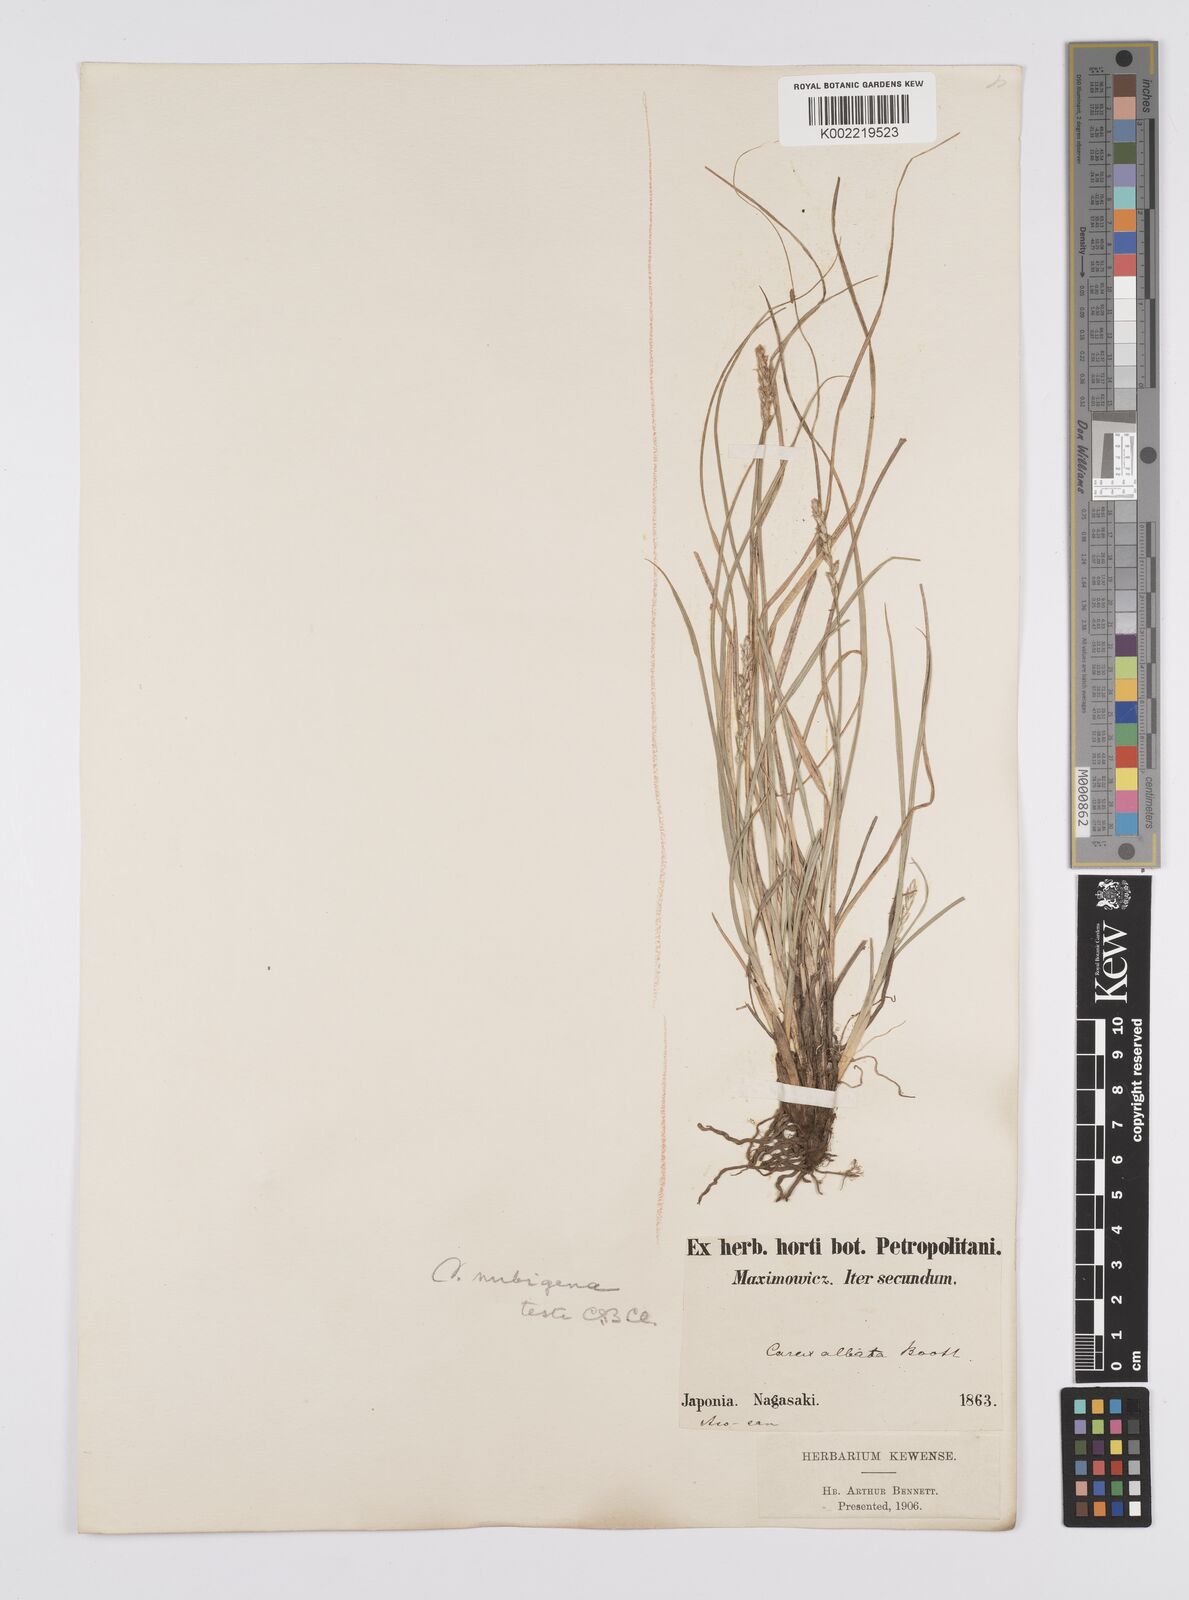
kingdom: Plantae
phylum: Tracheophyta
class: Liliopsida
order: Poales
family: Cyperaceae
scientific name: Cyperaceae
